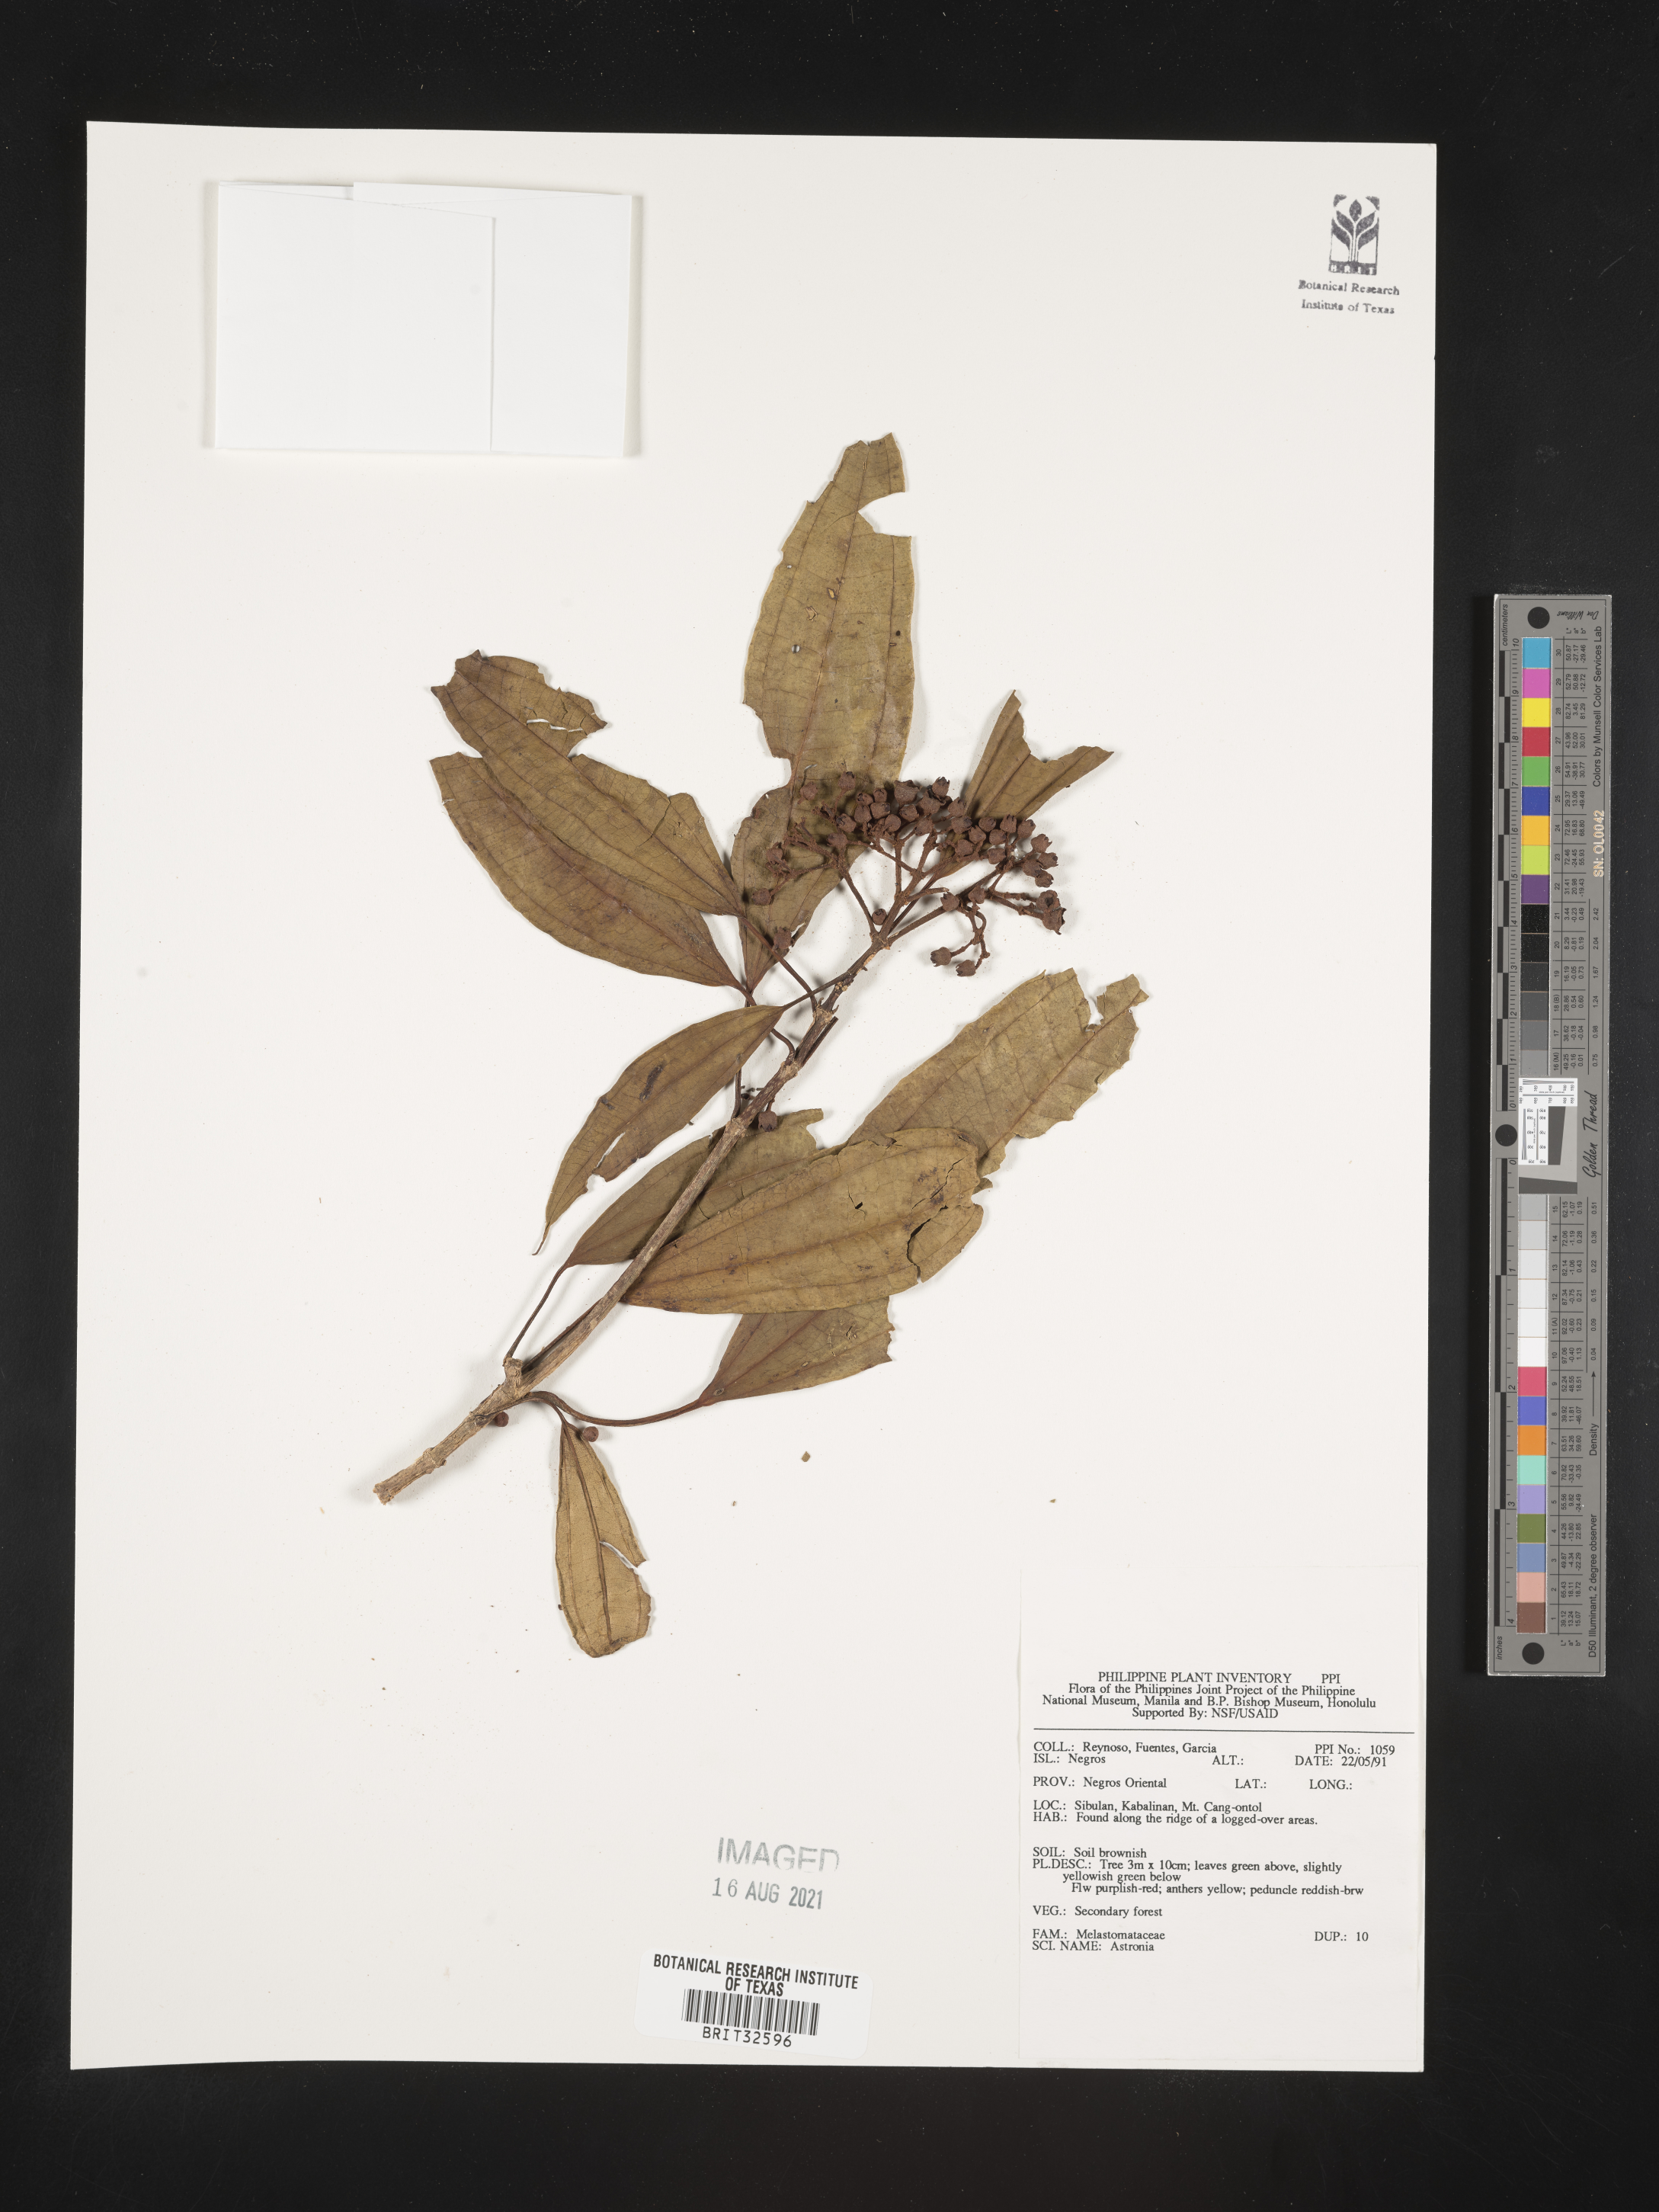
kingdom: Plantae
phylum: Tracheophyta
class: Magnoliopsida
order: Myrtales
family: Melastomataceae
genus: Astronia
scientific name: Astronia
